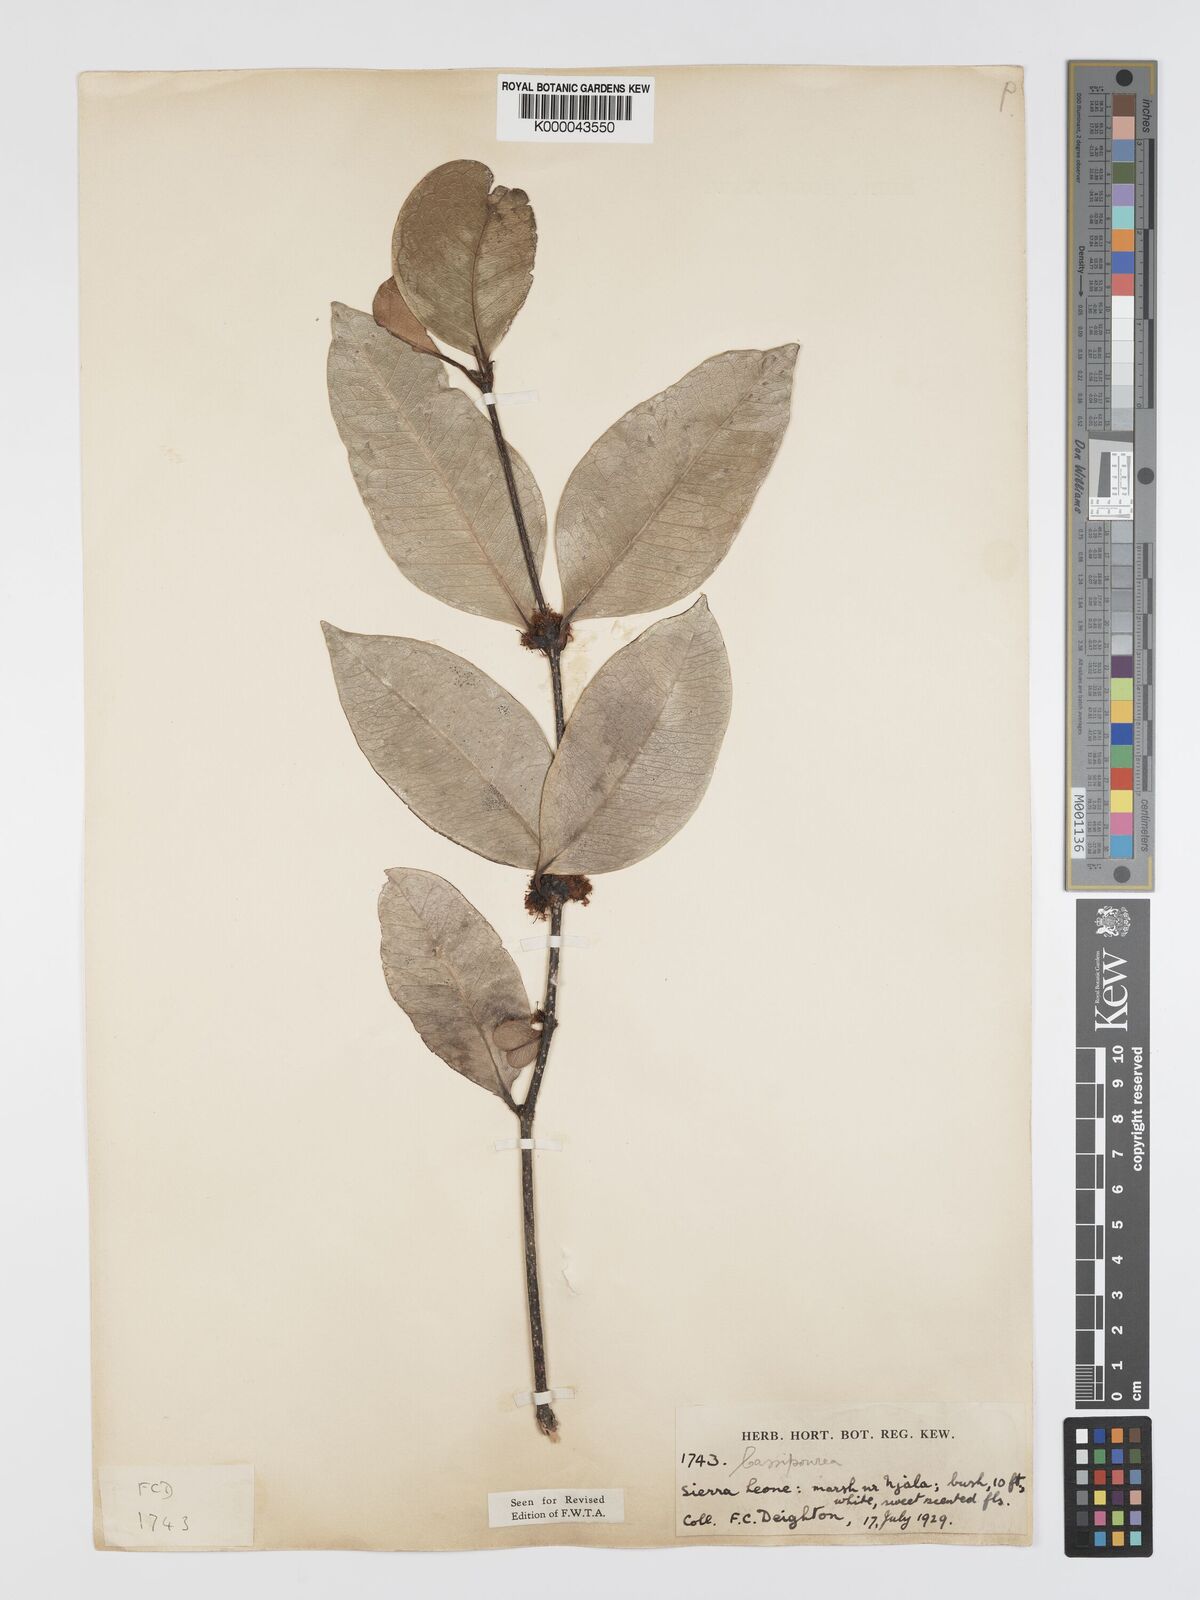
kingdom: Plantae
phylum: Tracheophyta
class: Magnoliopsida
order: Malpighiales
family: Rhizophoraceae
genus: Cassipourea
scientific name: Cassipourea
